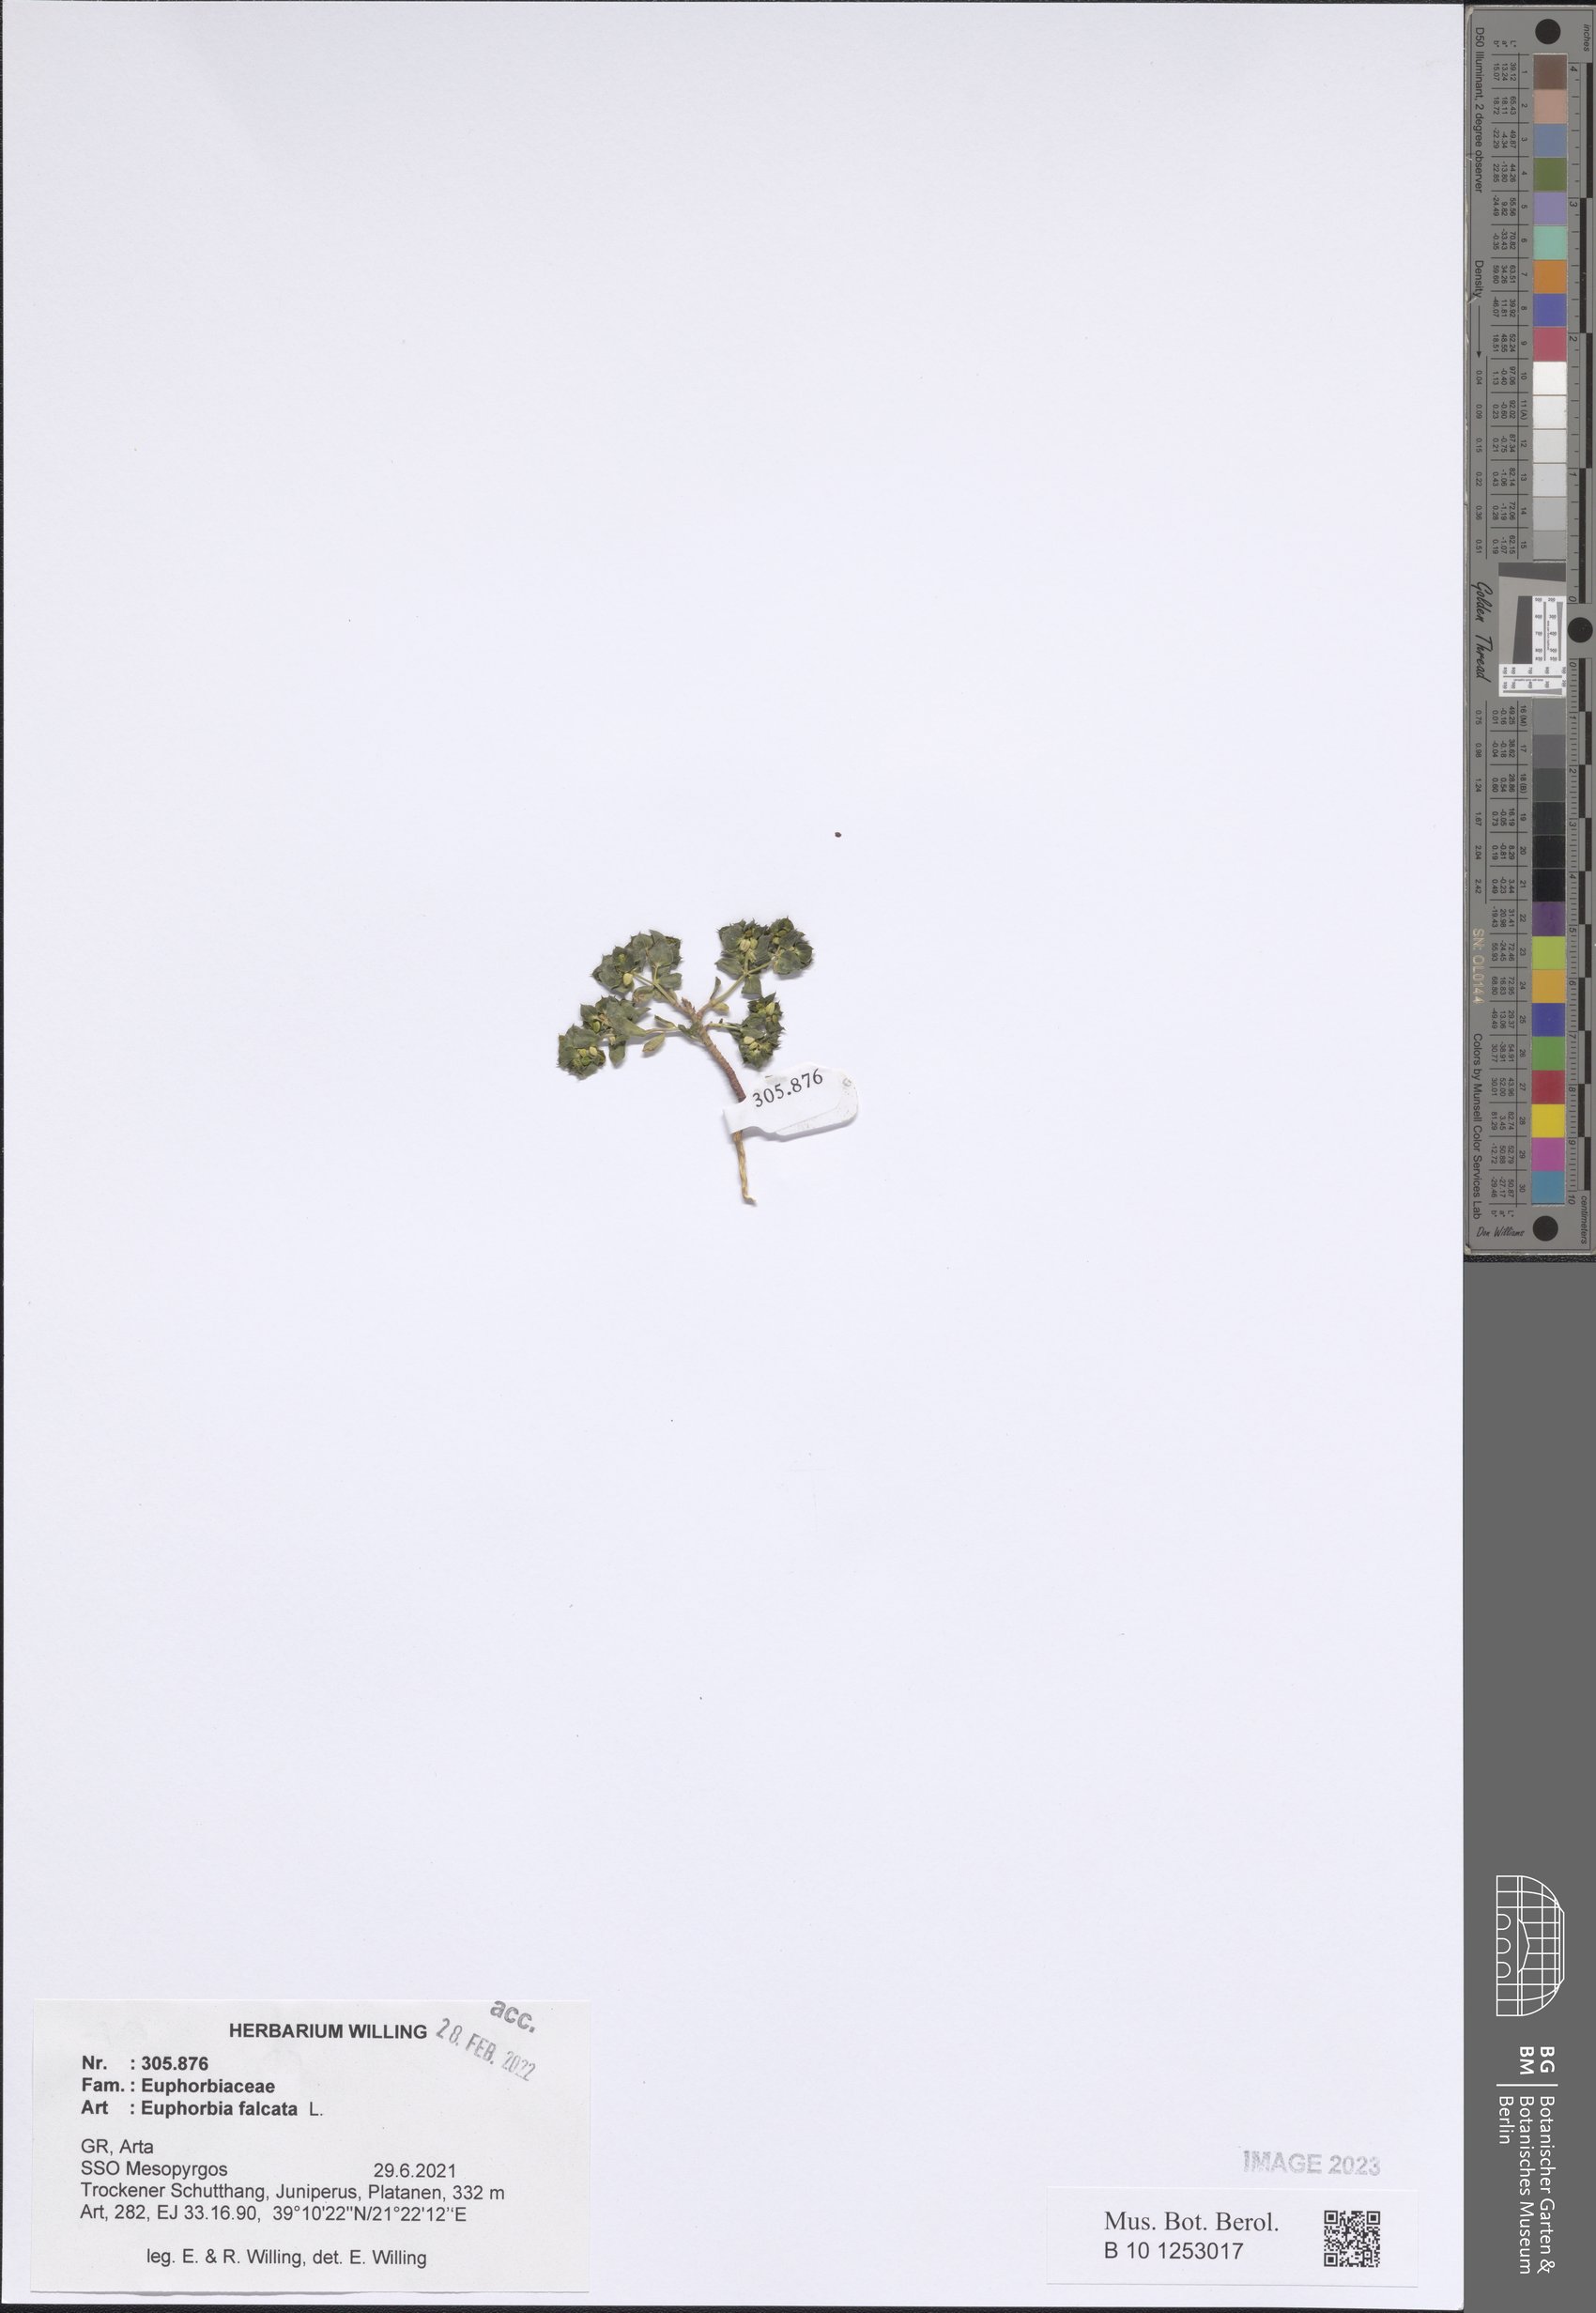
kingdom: Plantae
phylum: Tracheophyta
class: Magnoliopsida
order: Malpighiales
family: Euphorbiaceae
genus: Euphorbia
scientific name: Euphorbia falcata
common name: Sickle spurge
